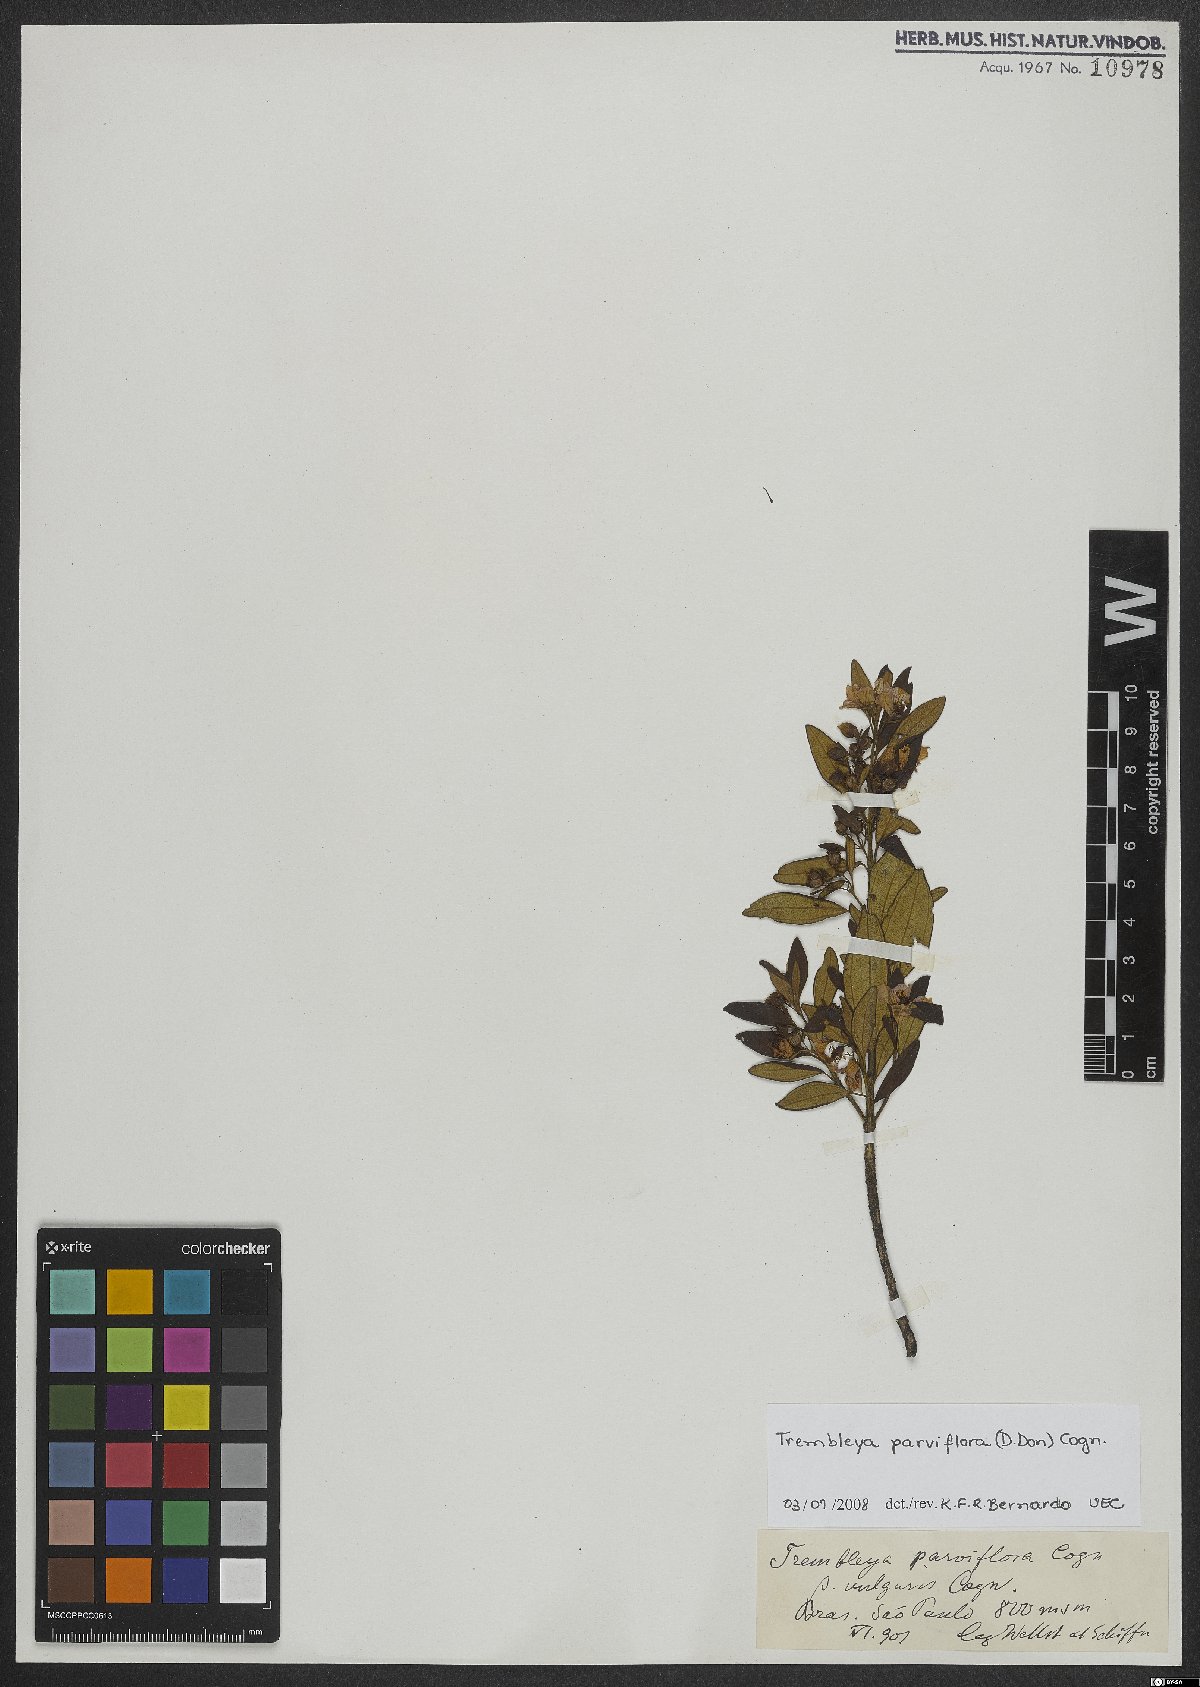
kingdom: Plantae
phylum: Tracheophyta
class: Magnoliopsida
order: Myrtales
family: Melastomataceae
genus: Microlicia
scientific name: Microlicia parviflora
